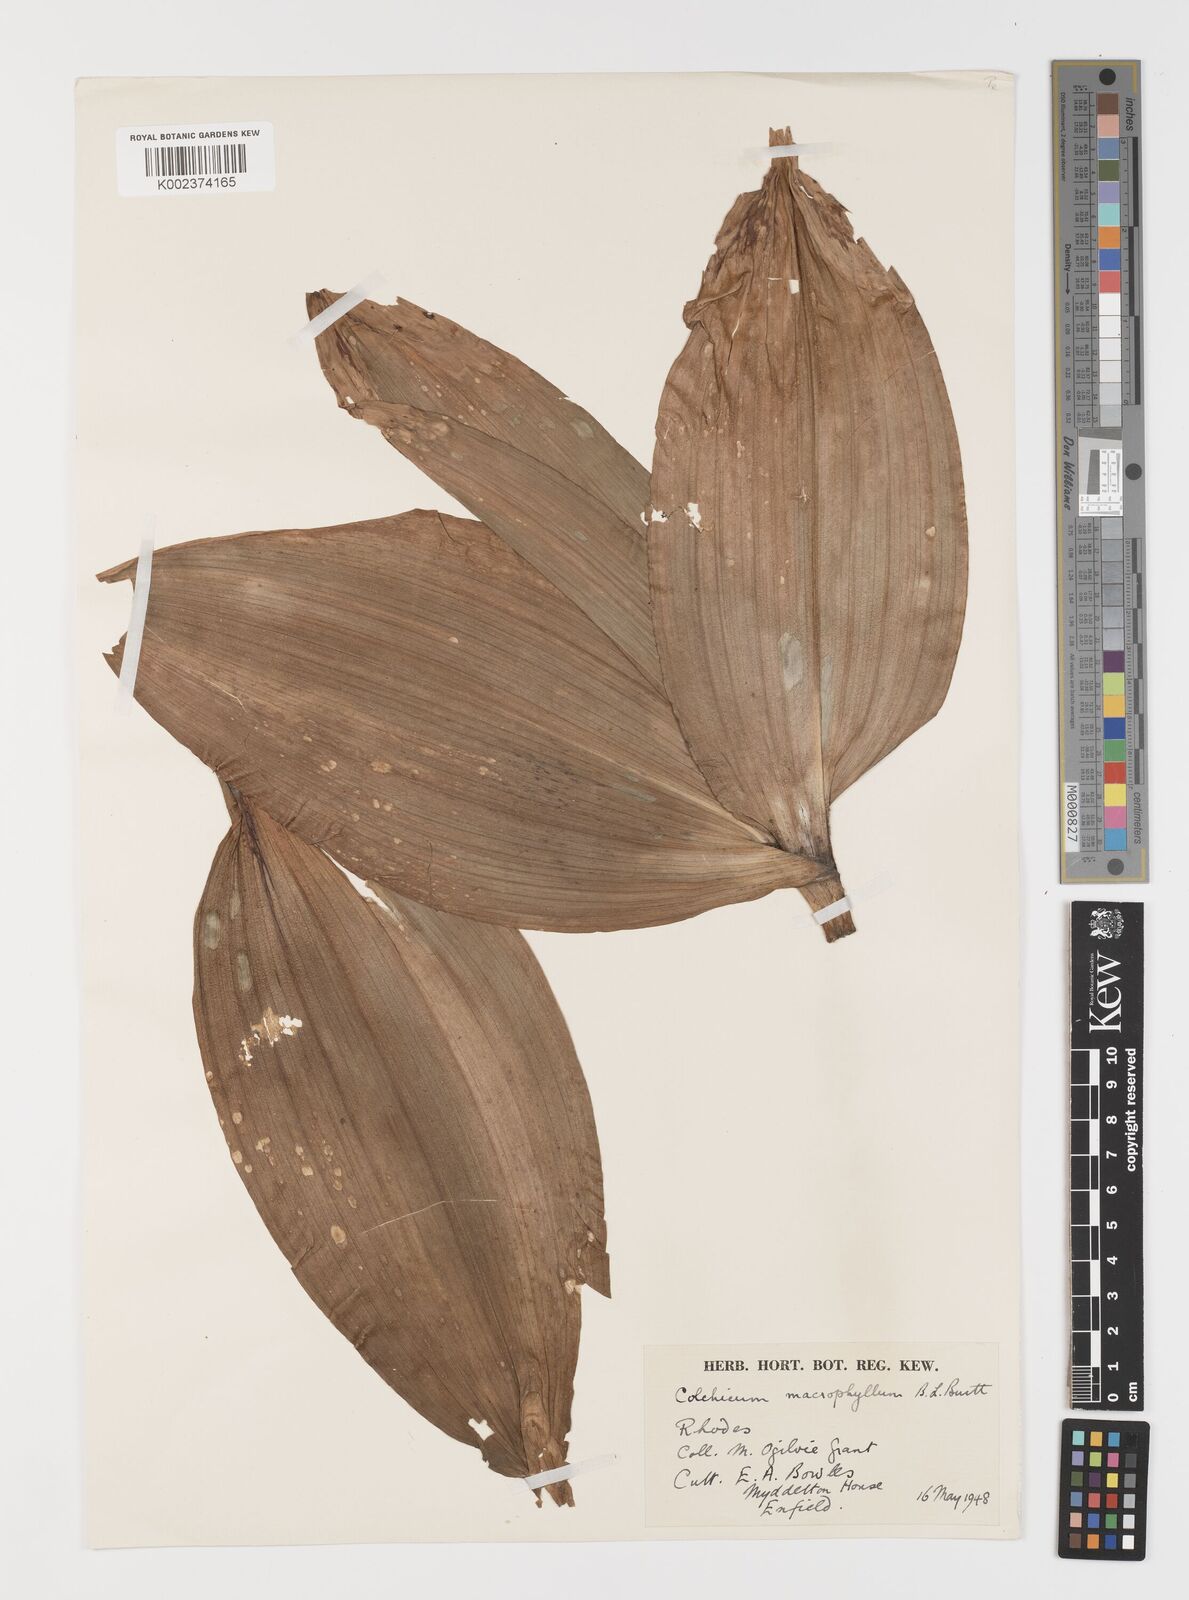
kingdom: Plantae
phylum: Tracheophyta
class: Liliopsida
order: Liliales
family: Colchicaceae
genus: Colchicum
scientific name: Colchicum macrophyllum
